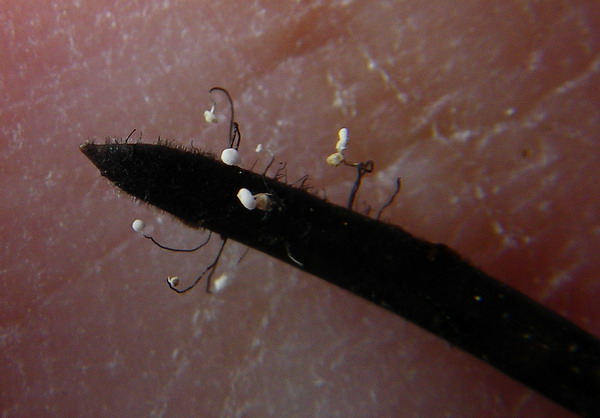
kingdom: Fungi
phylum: Ascomycota
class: Leotiomycetes
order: Helotiales
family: Gelatinodiscaceae
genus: Ombrophila
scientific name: Ombrophila juniperinella
